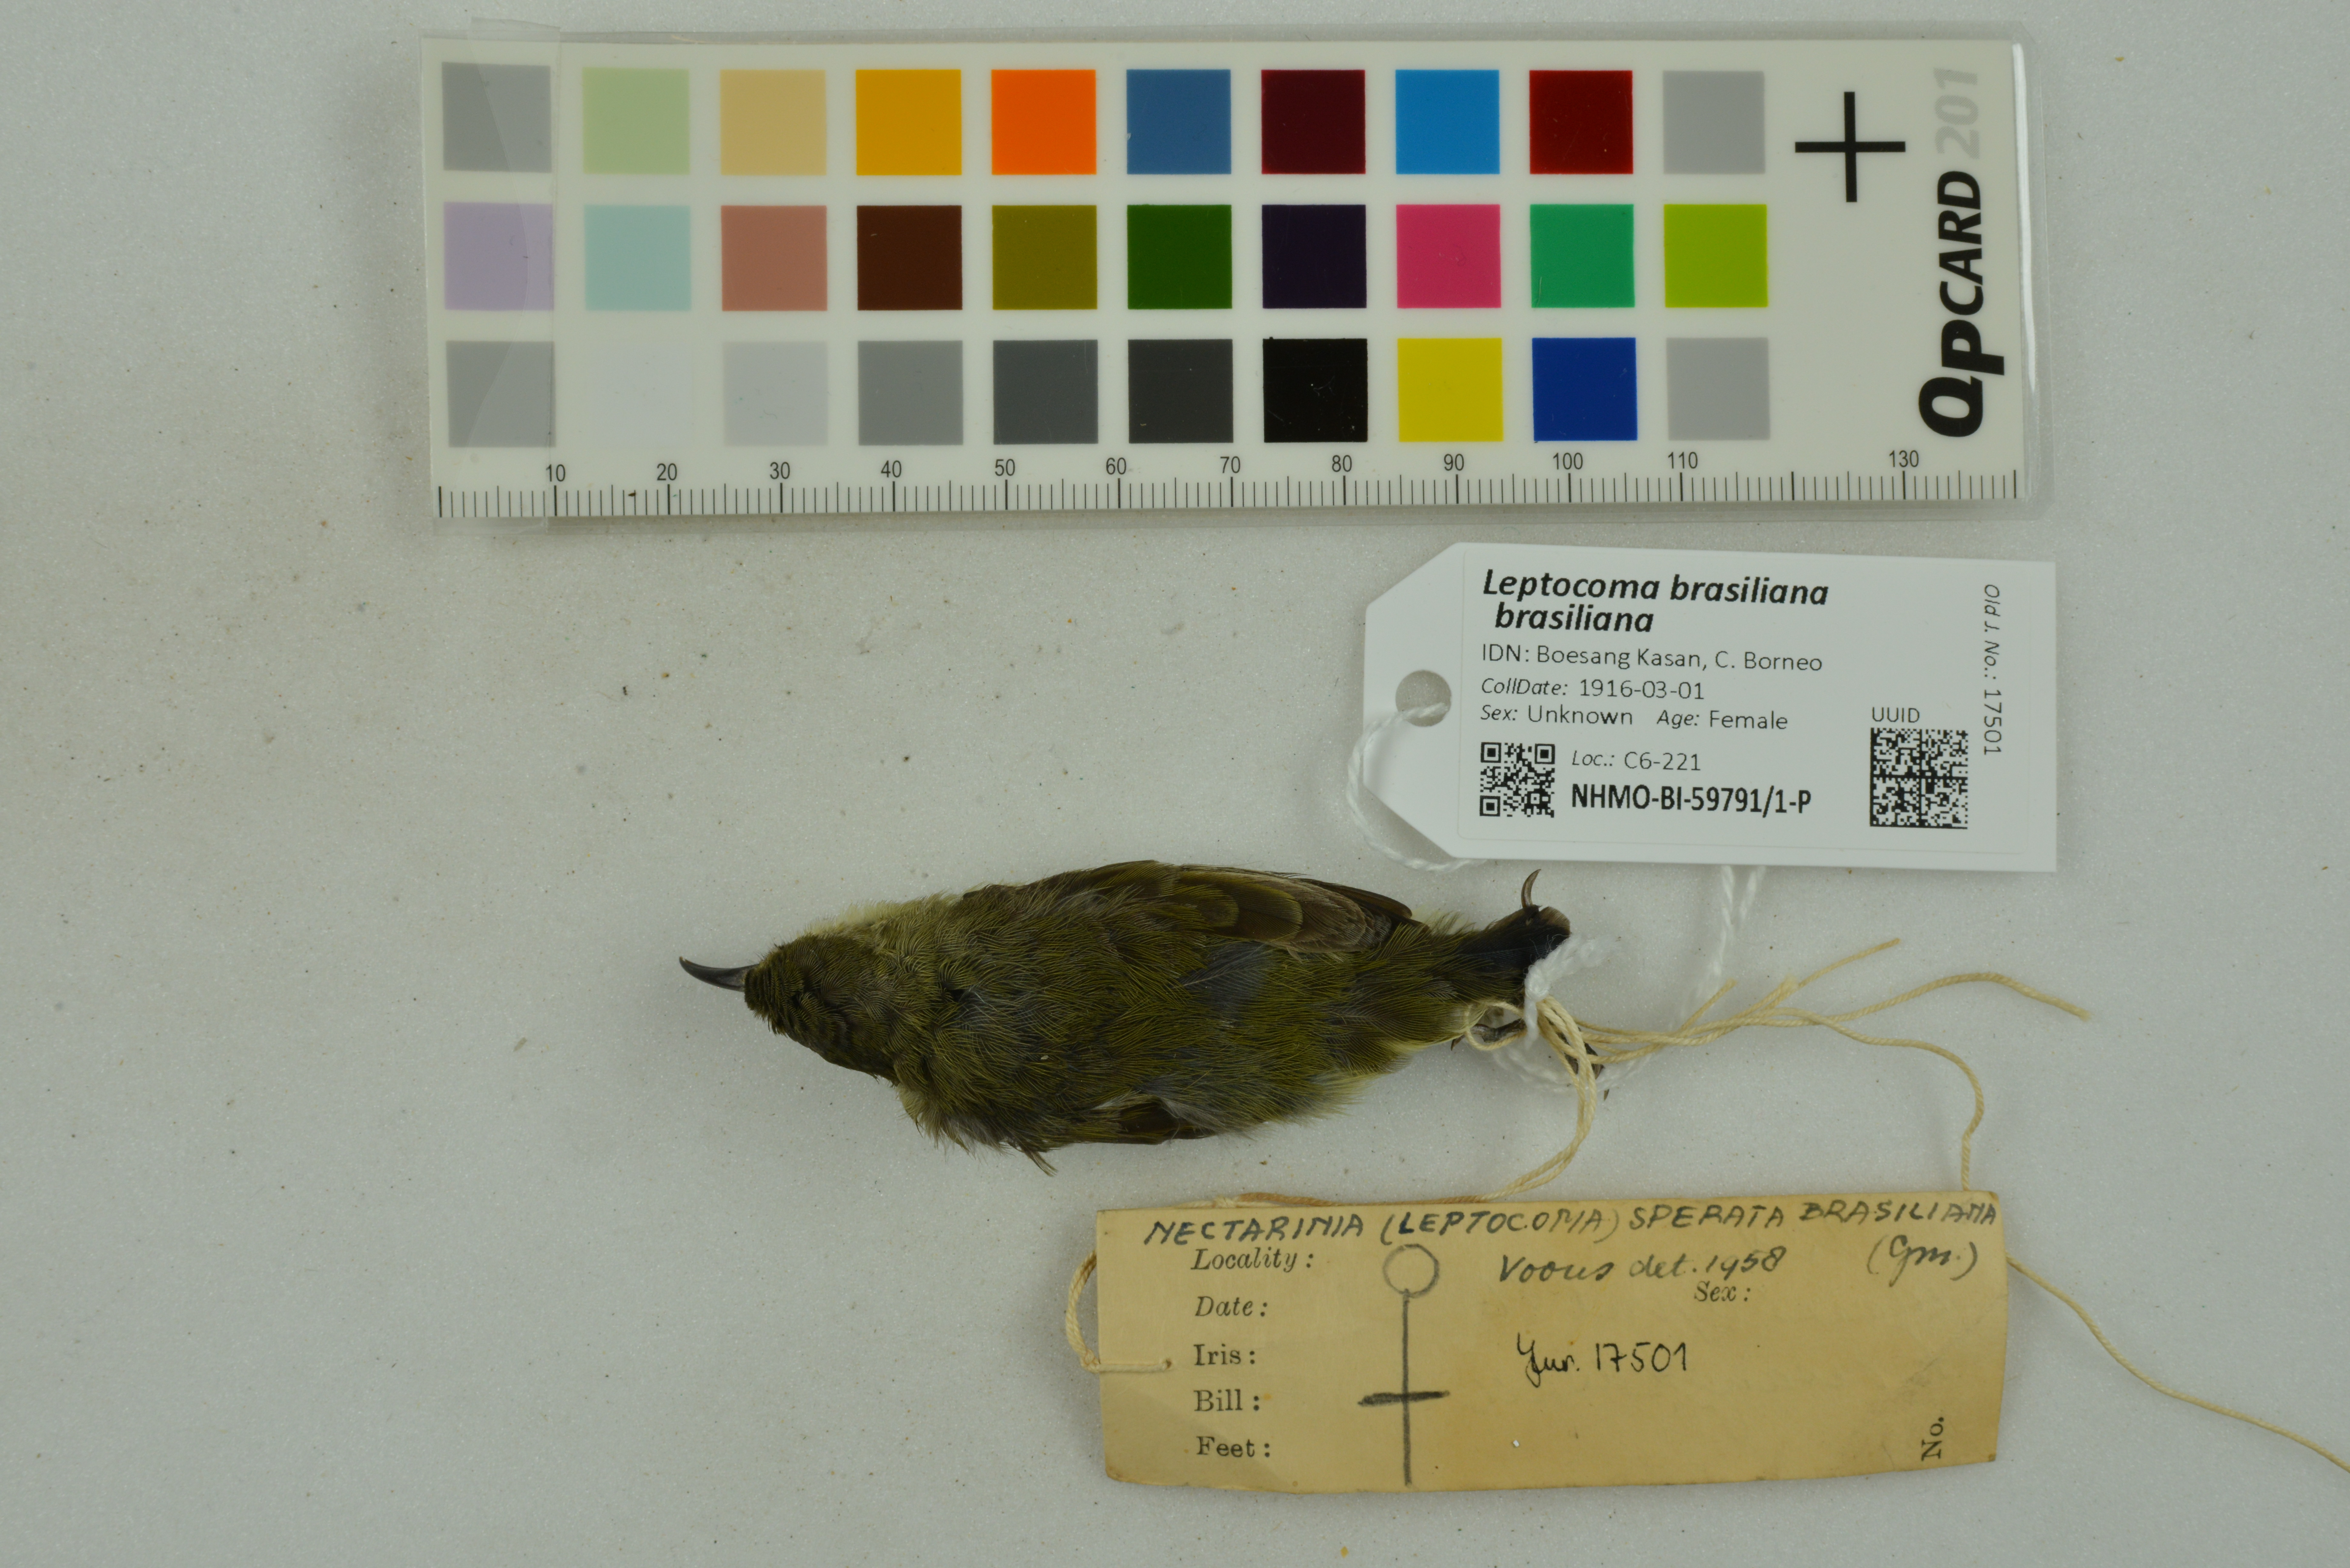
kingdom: Animalia
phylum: Chordata
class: Aves
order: Passeriformes
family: Nectariniidae
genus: Leptocoma
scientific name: Leptocoma brasiliana
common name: Van hasselt's sunbird
